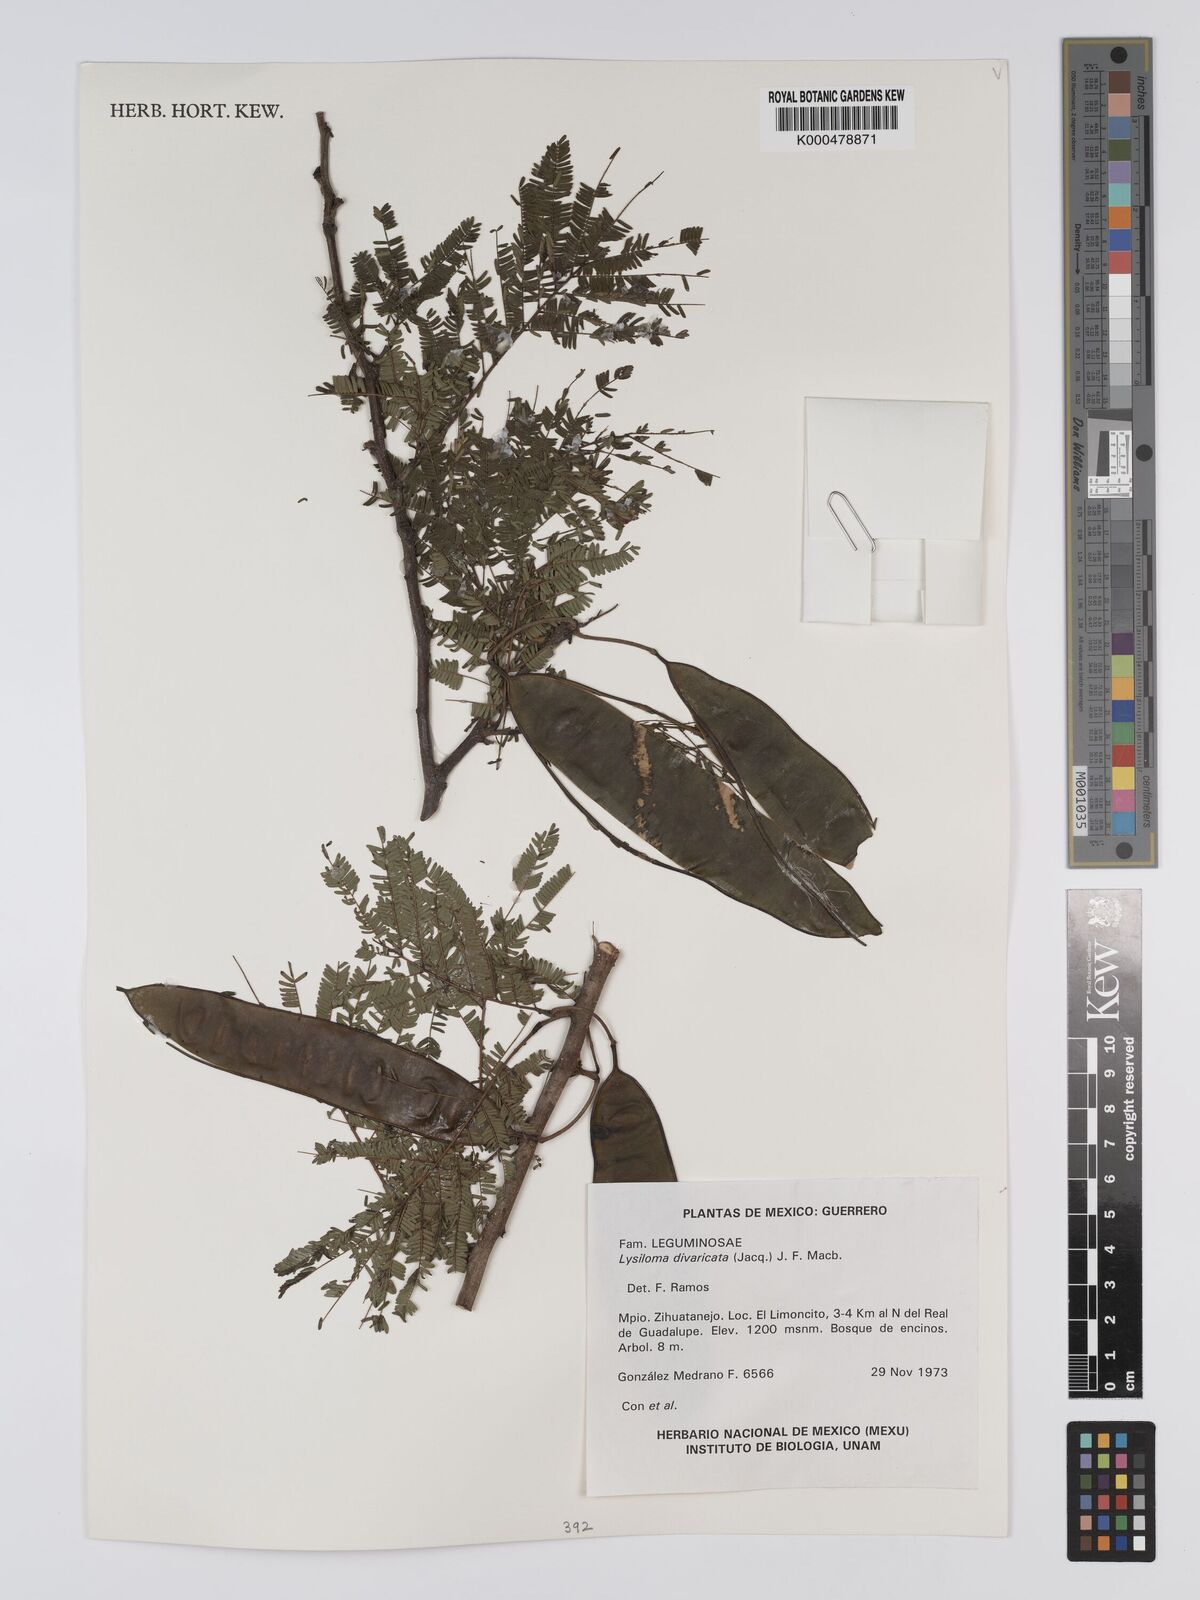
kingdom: Plantae
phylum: Tracheophyta
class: Magnoliopsida
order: Fabales
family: Fabaceae
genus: Lysiloma
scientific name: Lysiloma divaricatum
